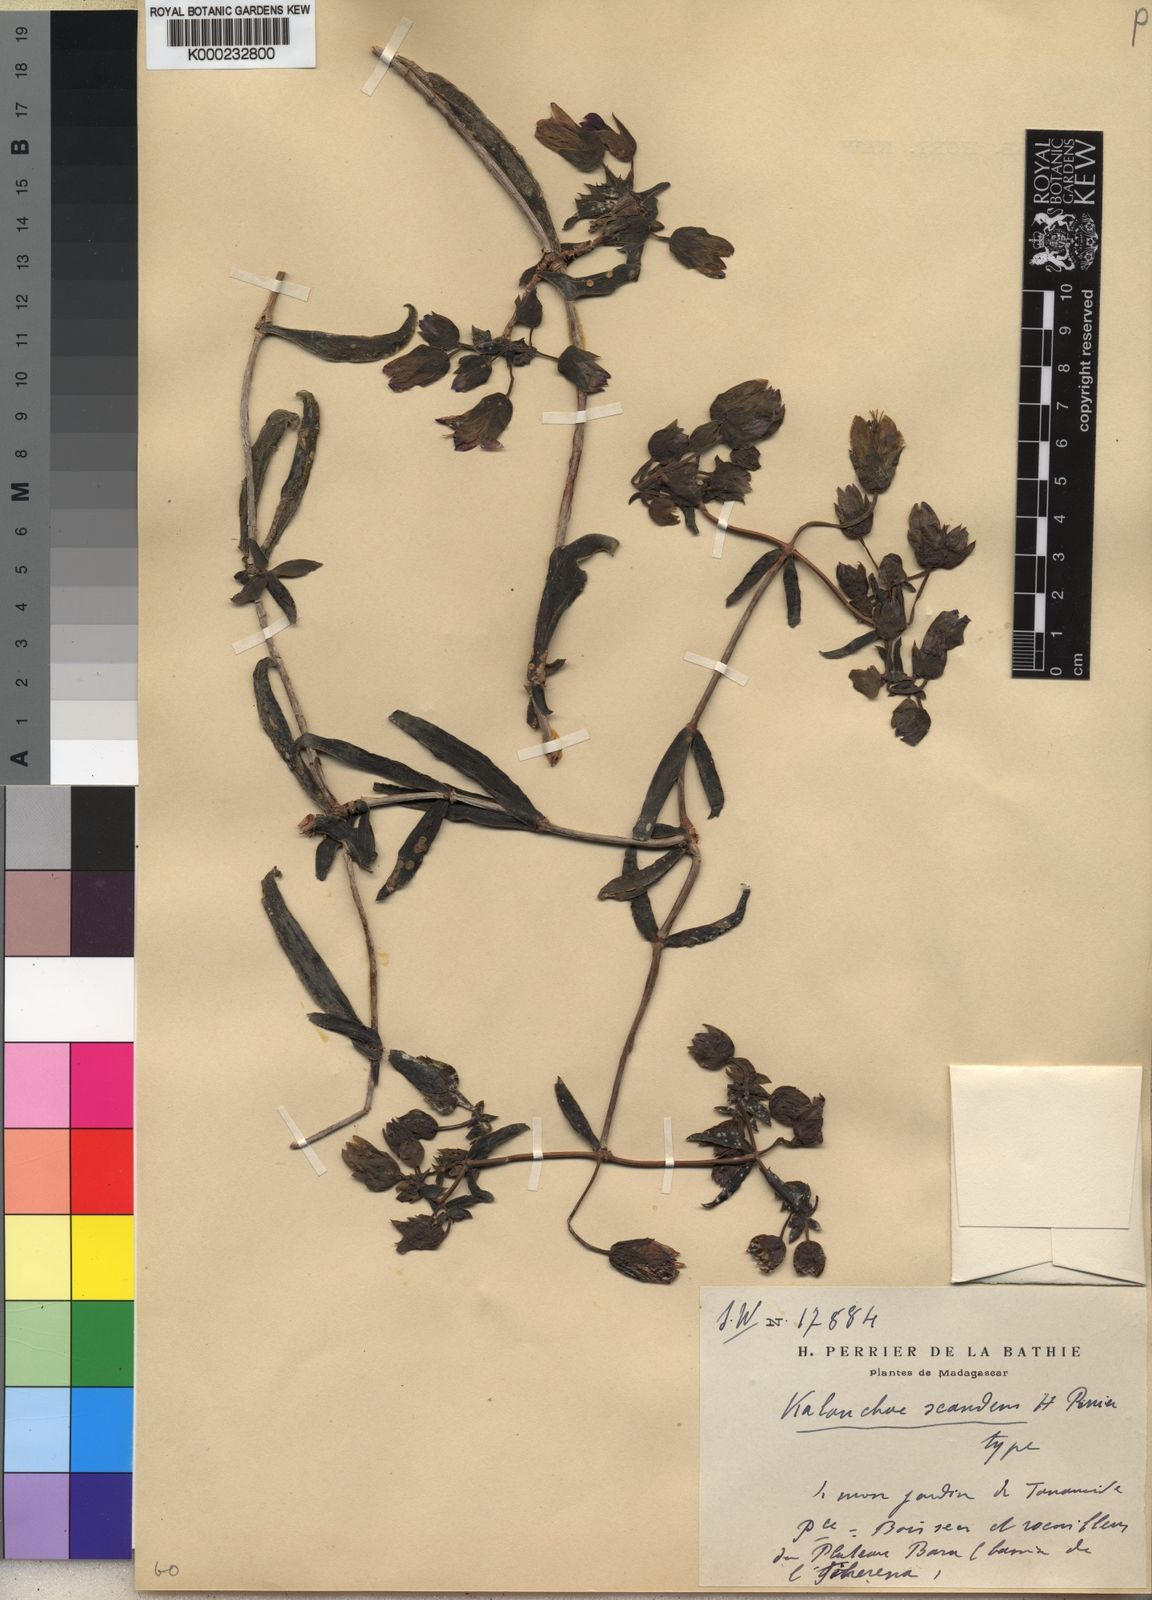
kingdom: Plantae
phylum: Tracheophyta
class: Magnoliopsida
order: Saxifragales
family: Crassulaceae
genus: Kalanchoe
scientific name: Kalanchoe beauverdii
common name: Beauverd's widow's-thrill
